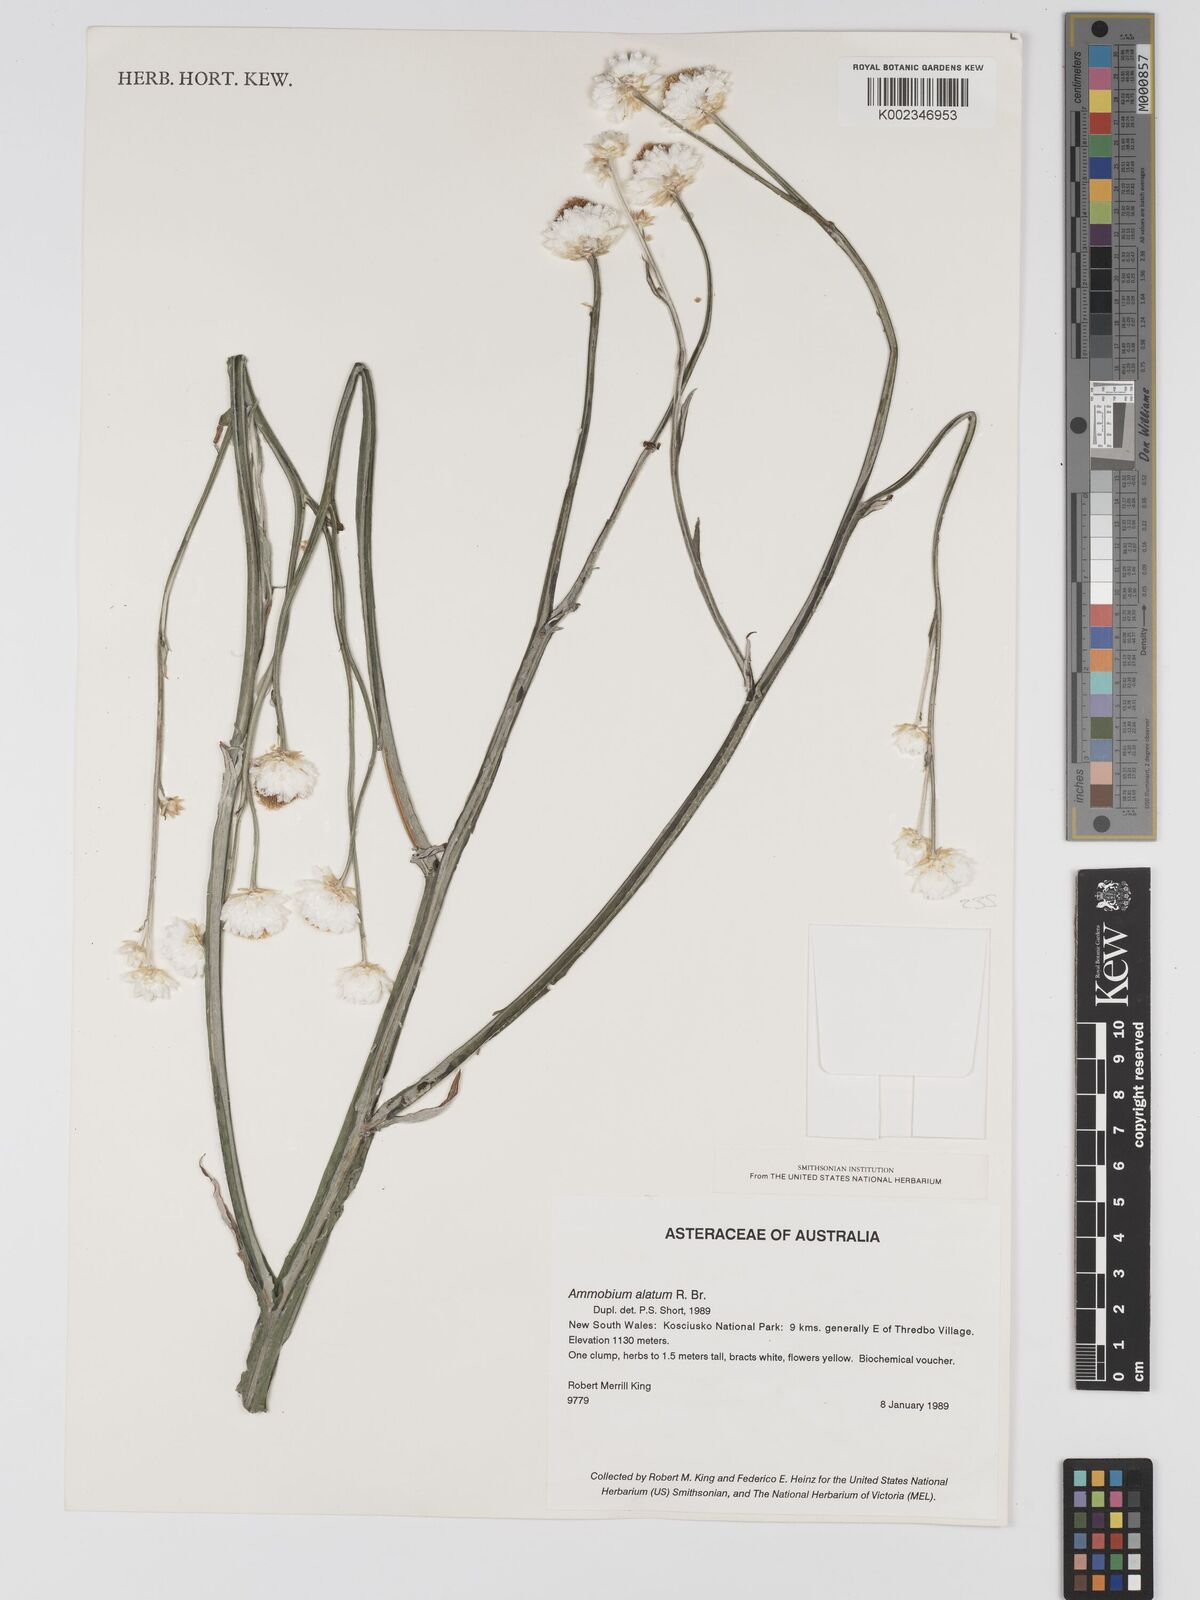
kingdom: Plantae
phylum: Tracheophyta
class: Magnoliopsida
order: Asterales
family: Asteraceae
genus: Ammobium
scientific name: Ammobium alatum
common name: Winged everlasting
